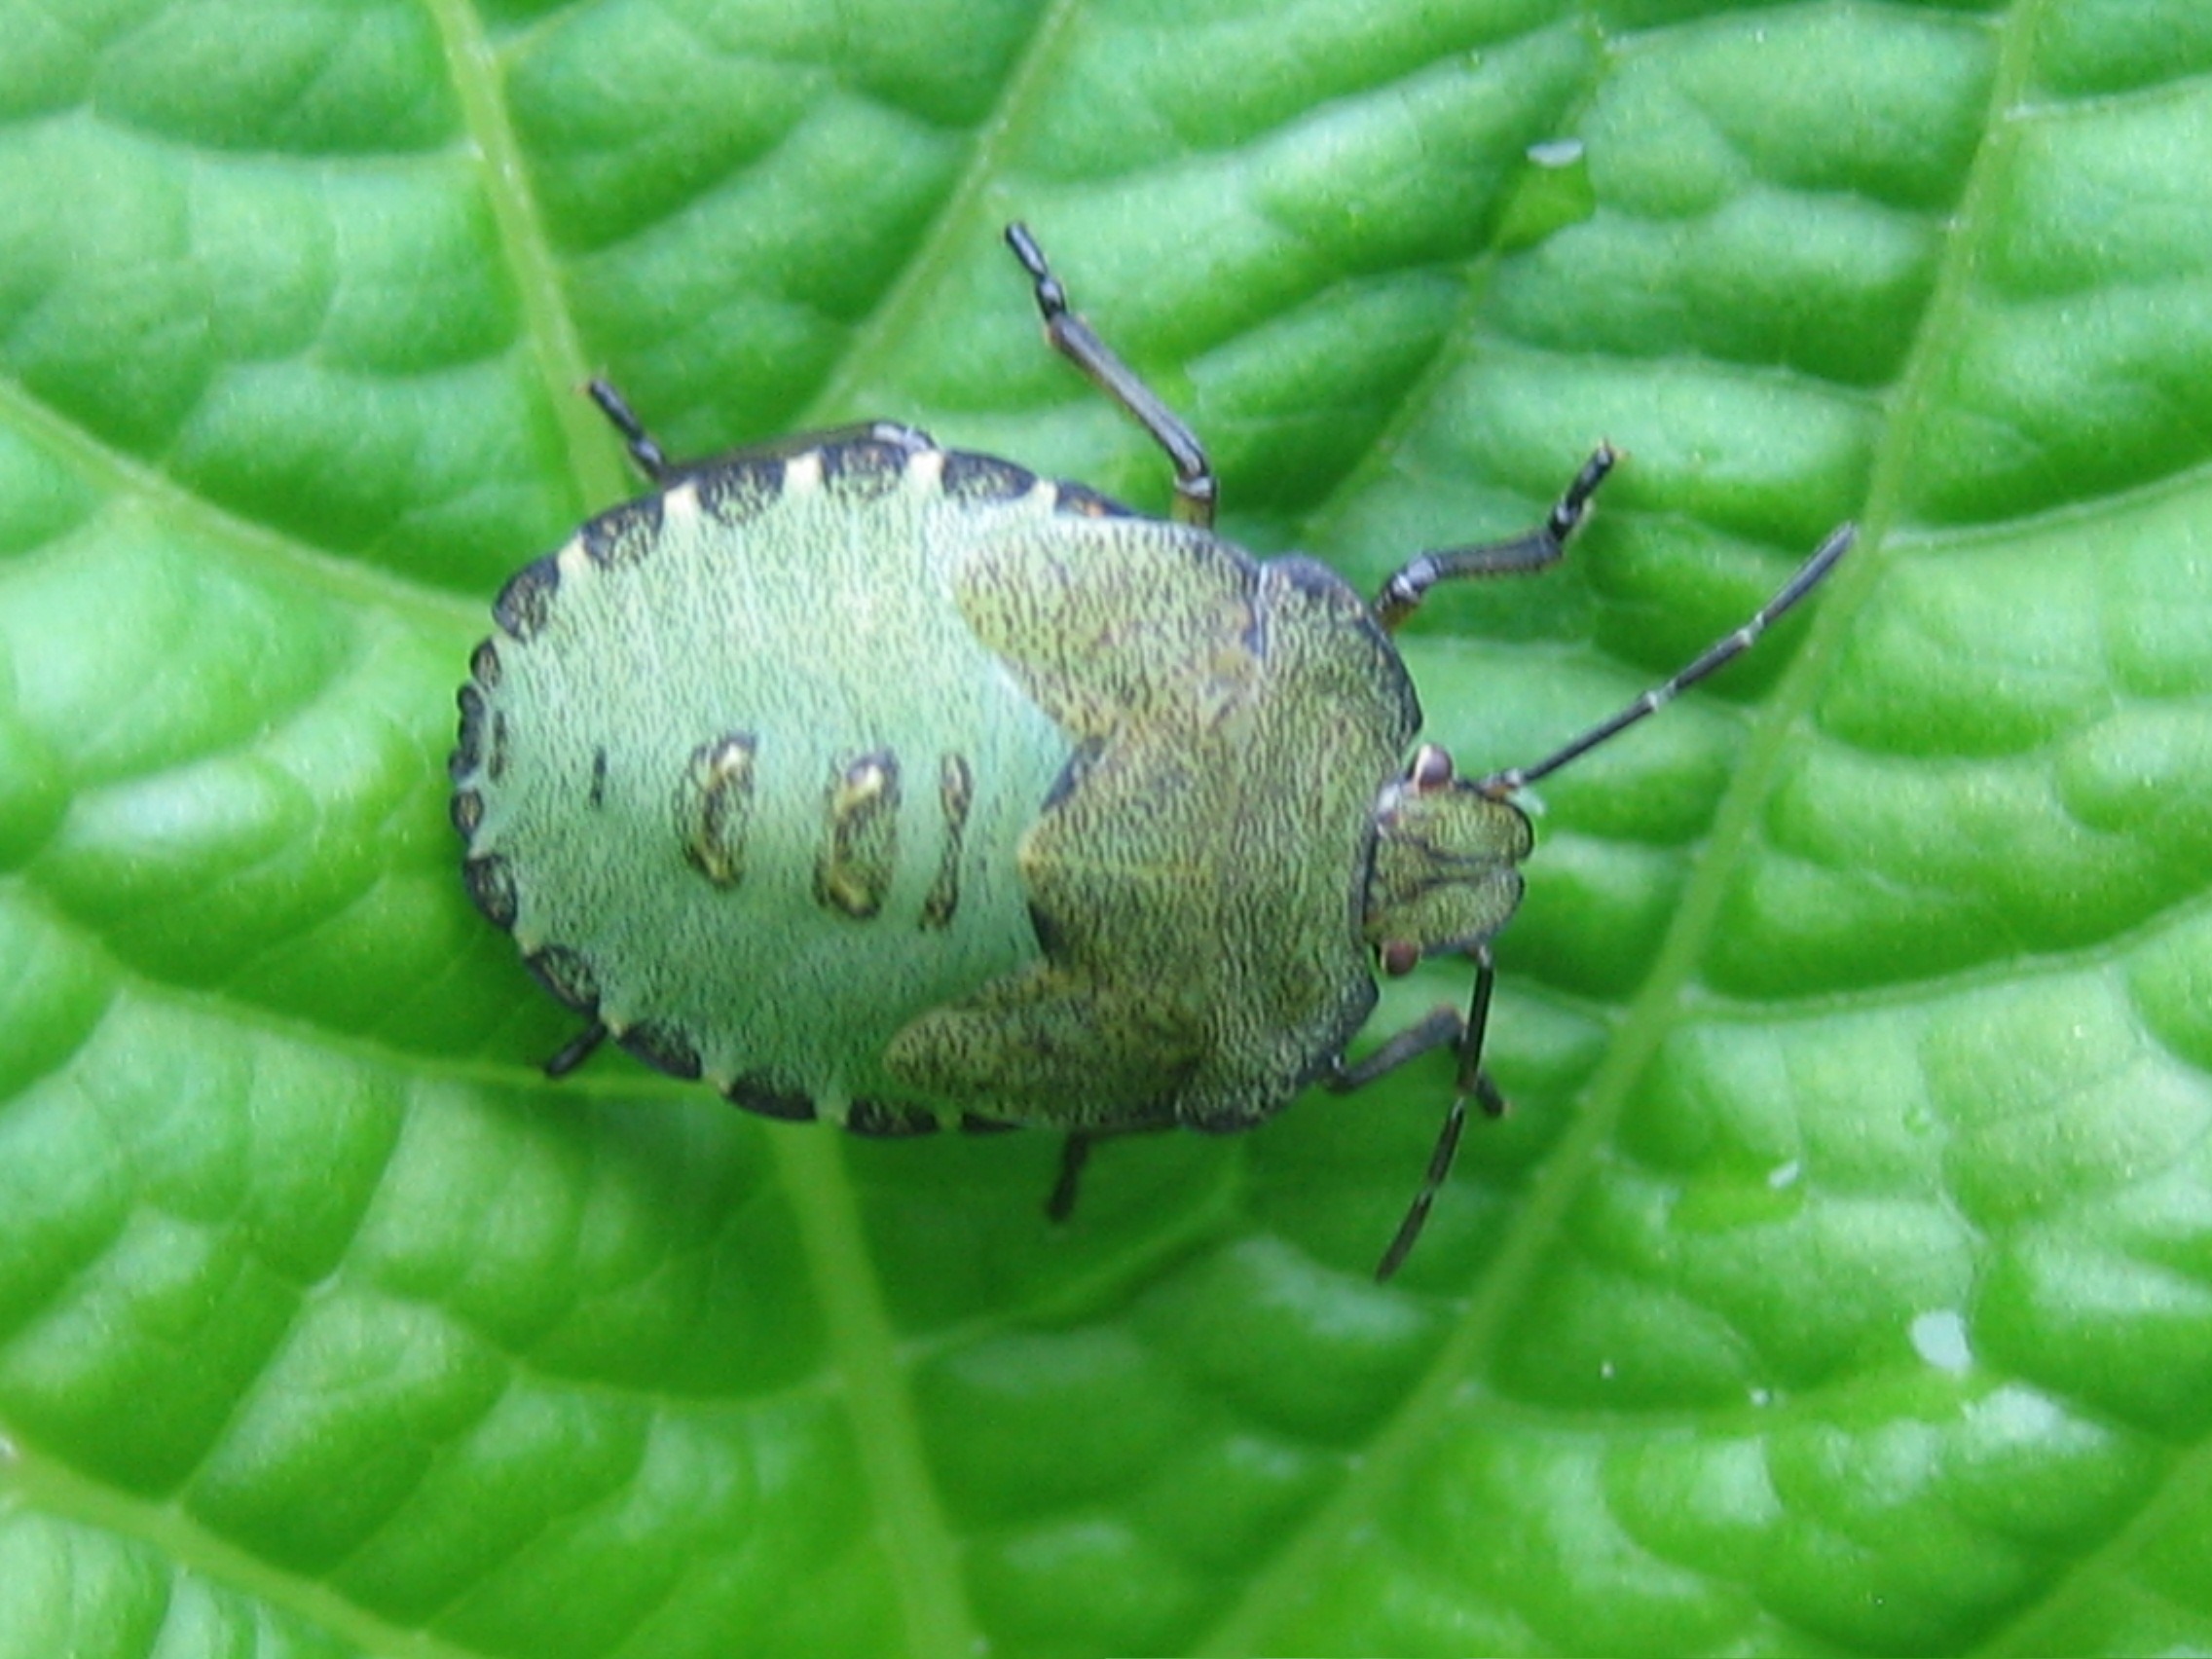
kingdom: Animalia
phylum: Arthropoda
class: Insecta
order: Hemiptera
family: Pentatomidae
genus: Palomena
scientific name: Palomena prasina
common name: Grøn bredtæge
